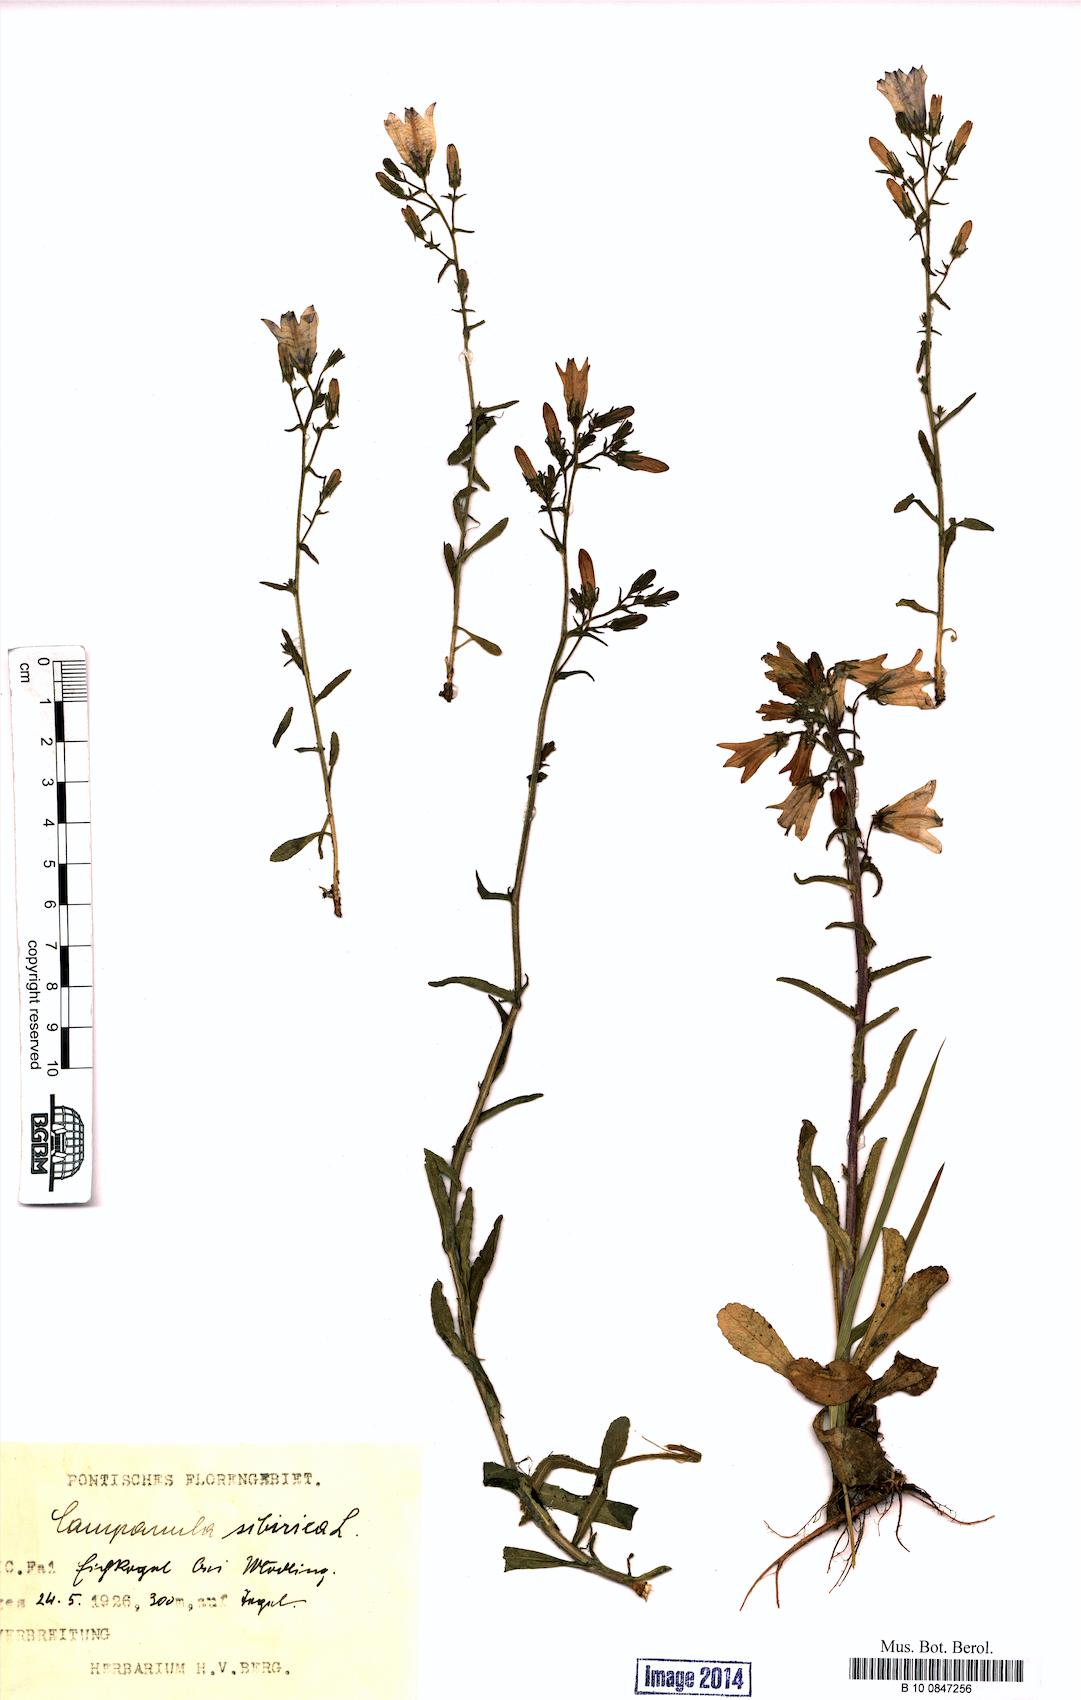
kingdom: Plantae
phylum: Tracheophyta
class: Magnoliopsida
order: Asterales
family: Campanulaceae
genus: Campanula
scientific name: Campanula sibirica
